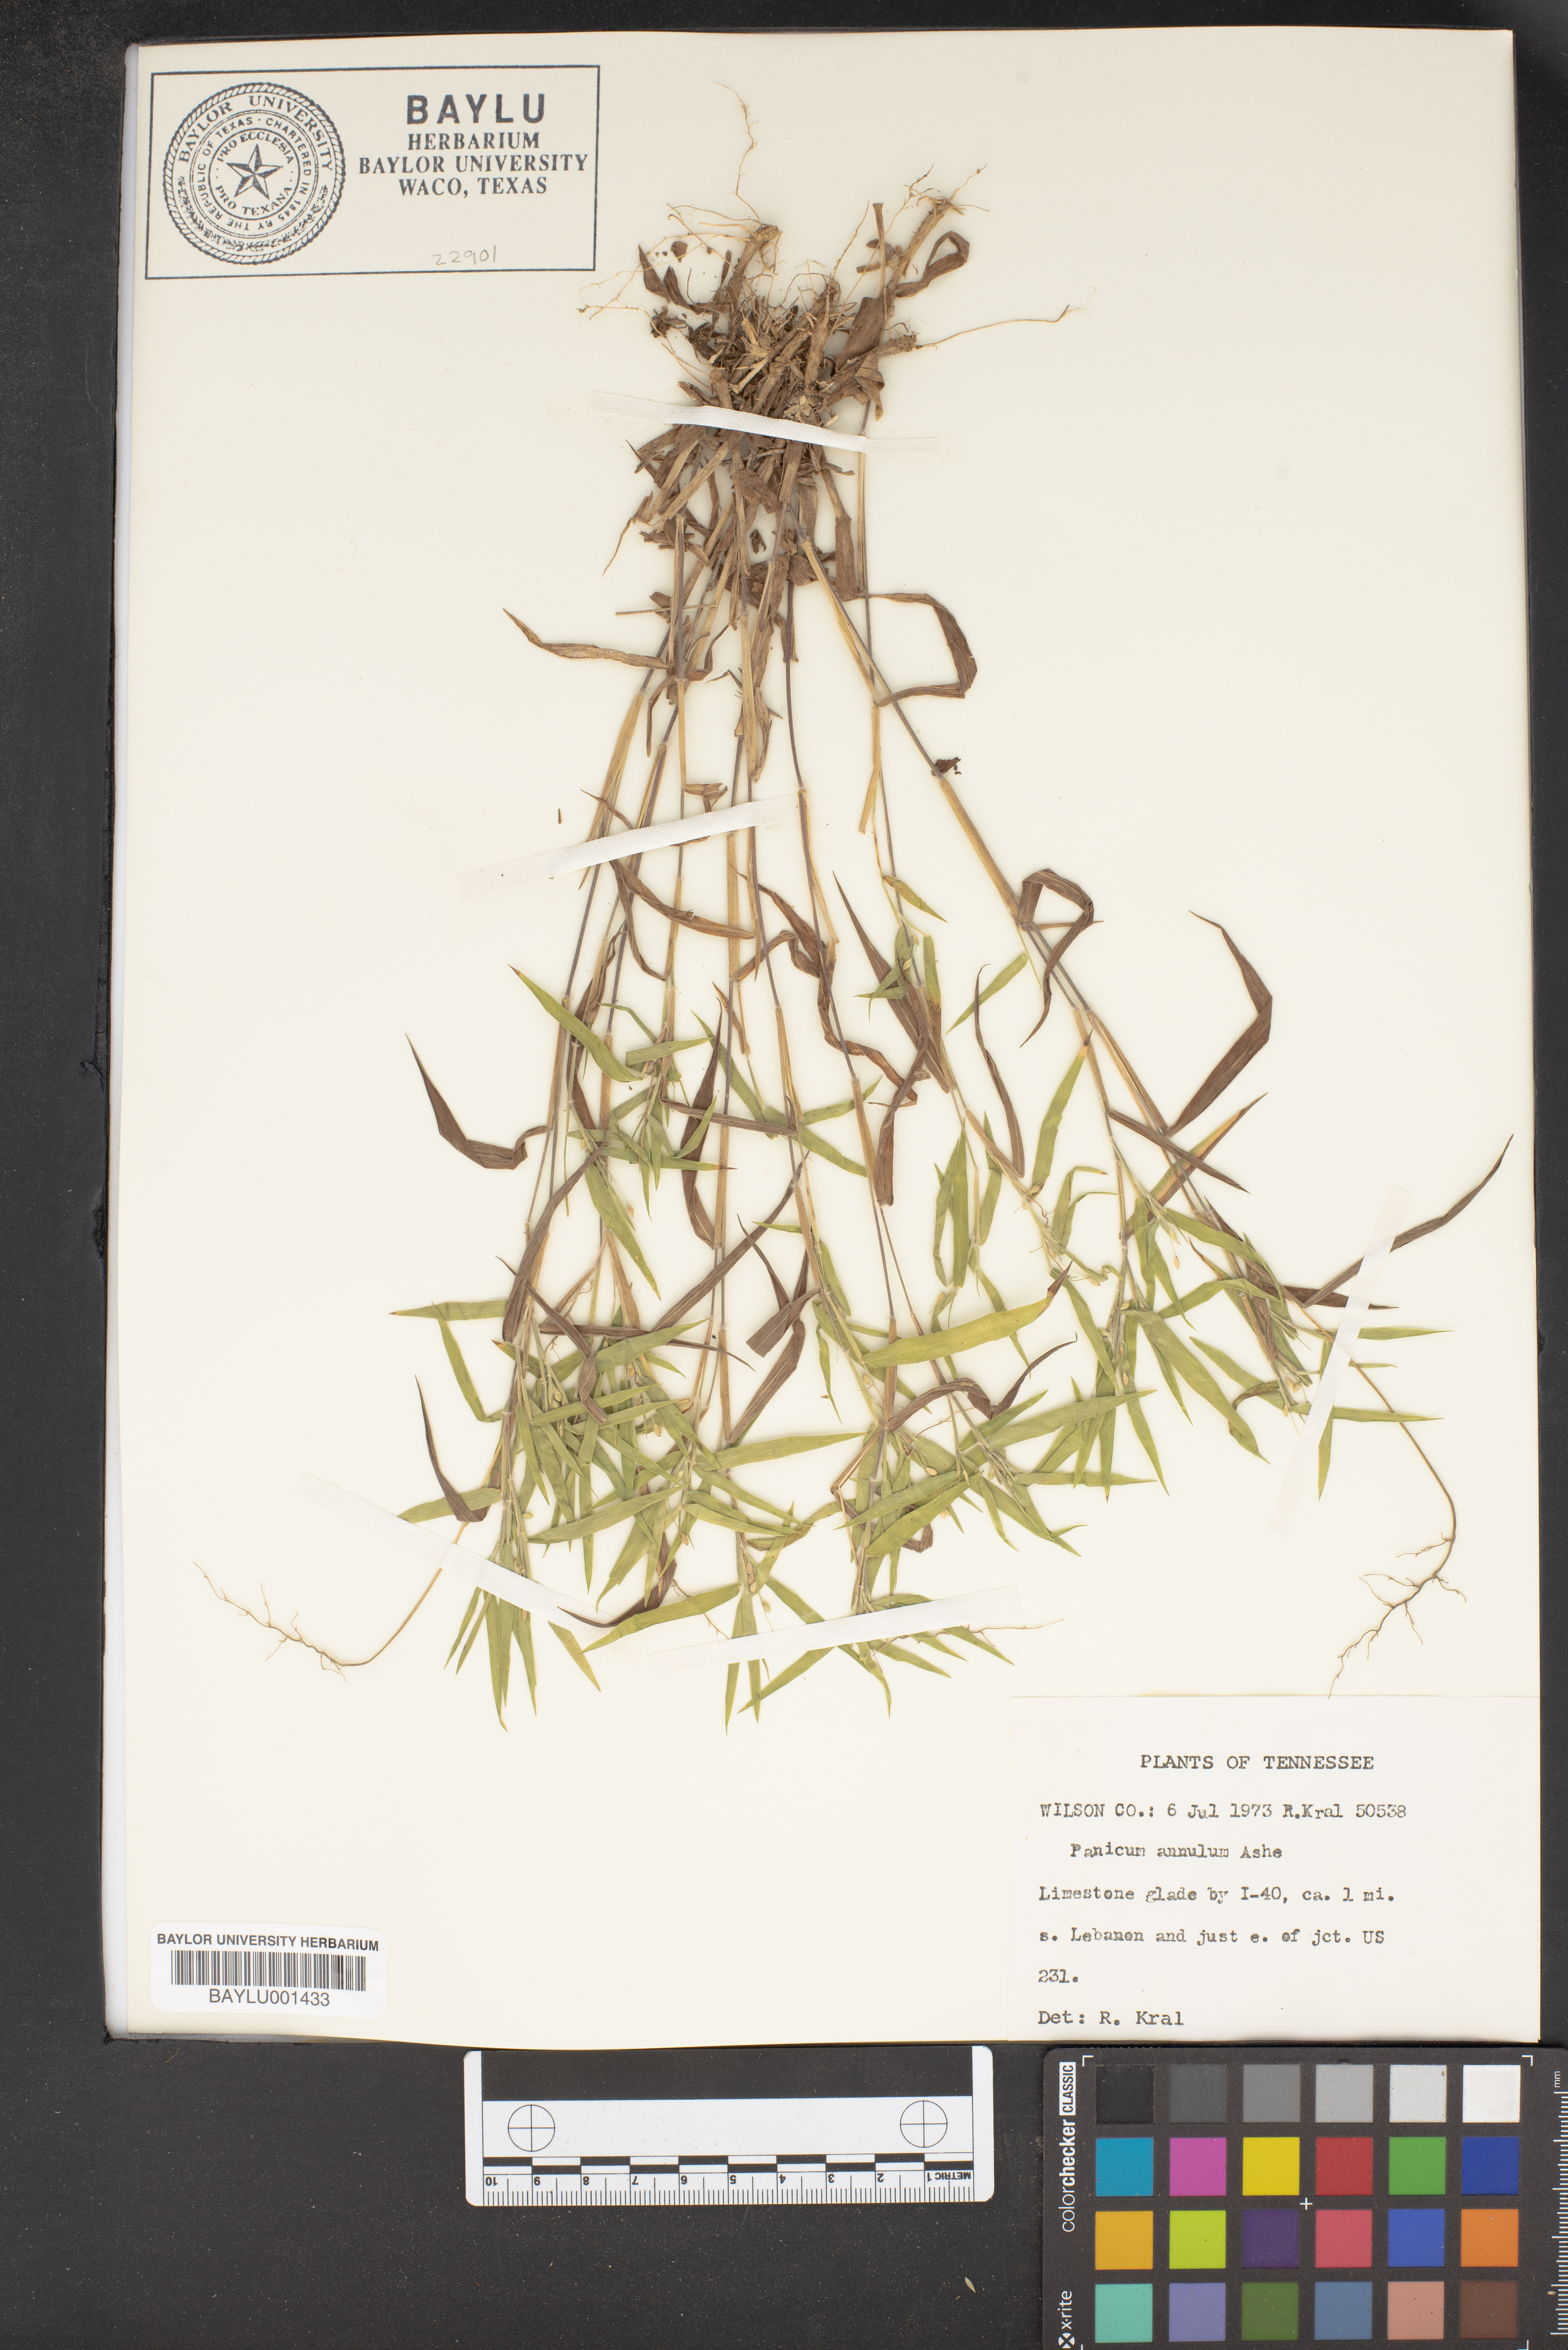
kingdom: Plantae
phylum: Tracheophyta
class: Liliopsida
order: Poales
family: Poaceae
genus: Dichanthelium
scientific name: Dichanthelium annulum
